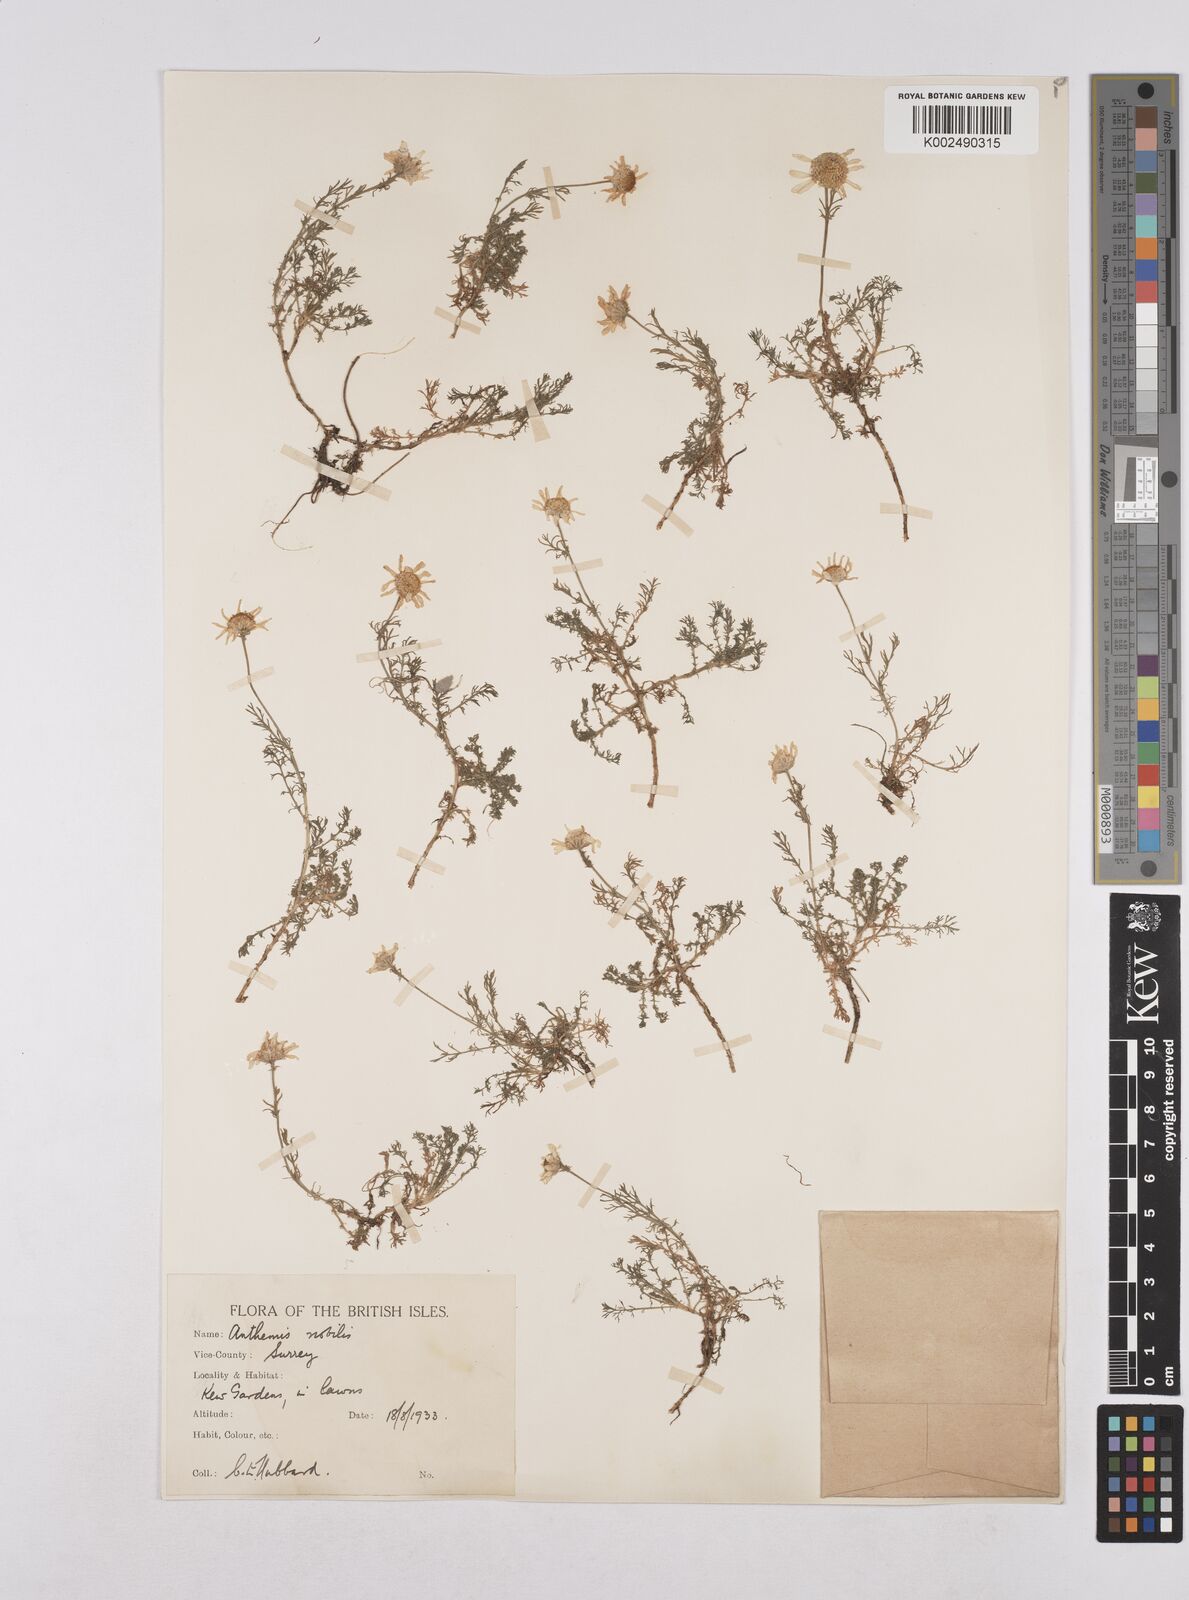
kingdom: Plantae
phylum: Tracheophyta
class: Magnoliopsida
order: Asterales
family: Asteraceae
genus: Chamaemelum
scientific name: Chamaemelum nobile
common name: Roman chamomile
